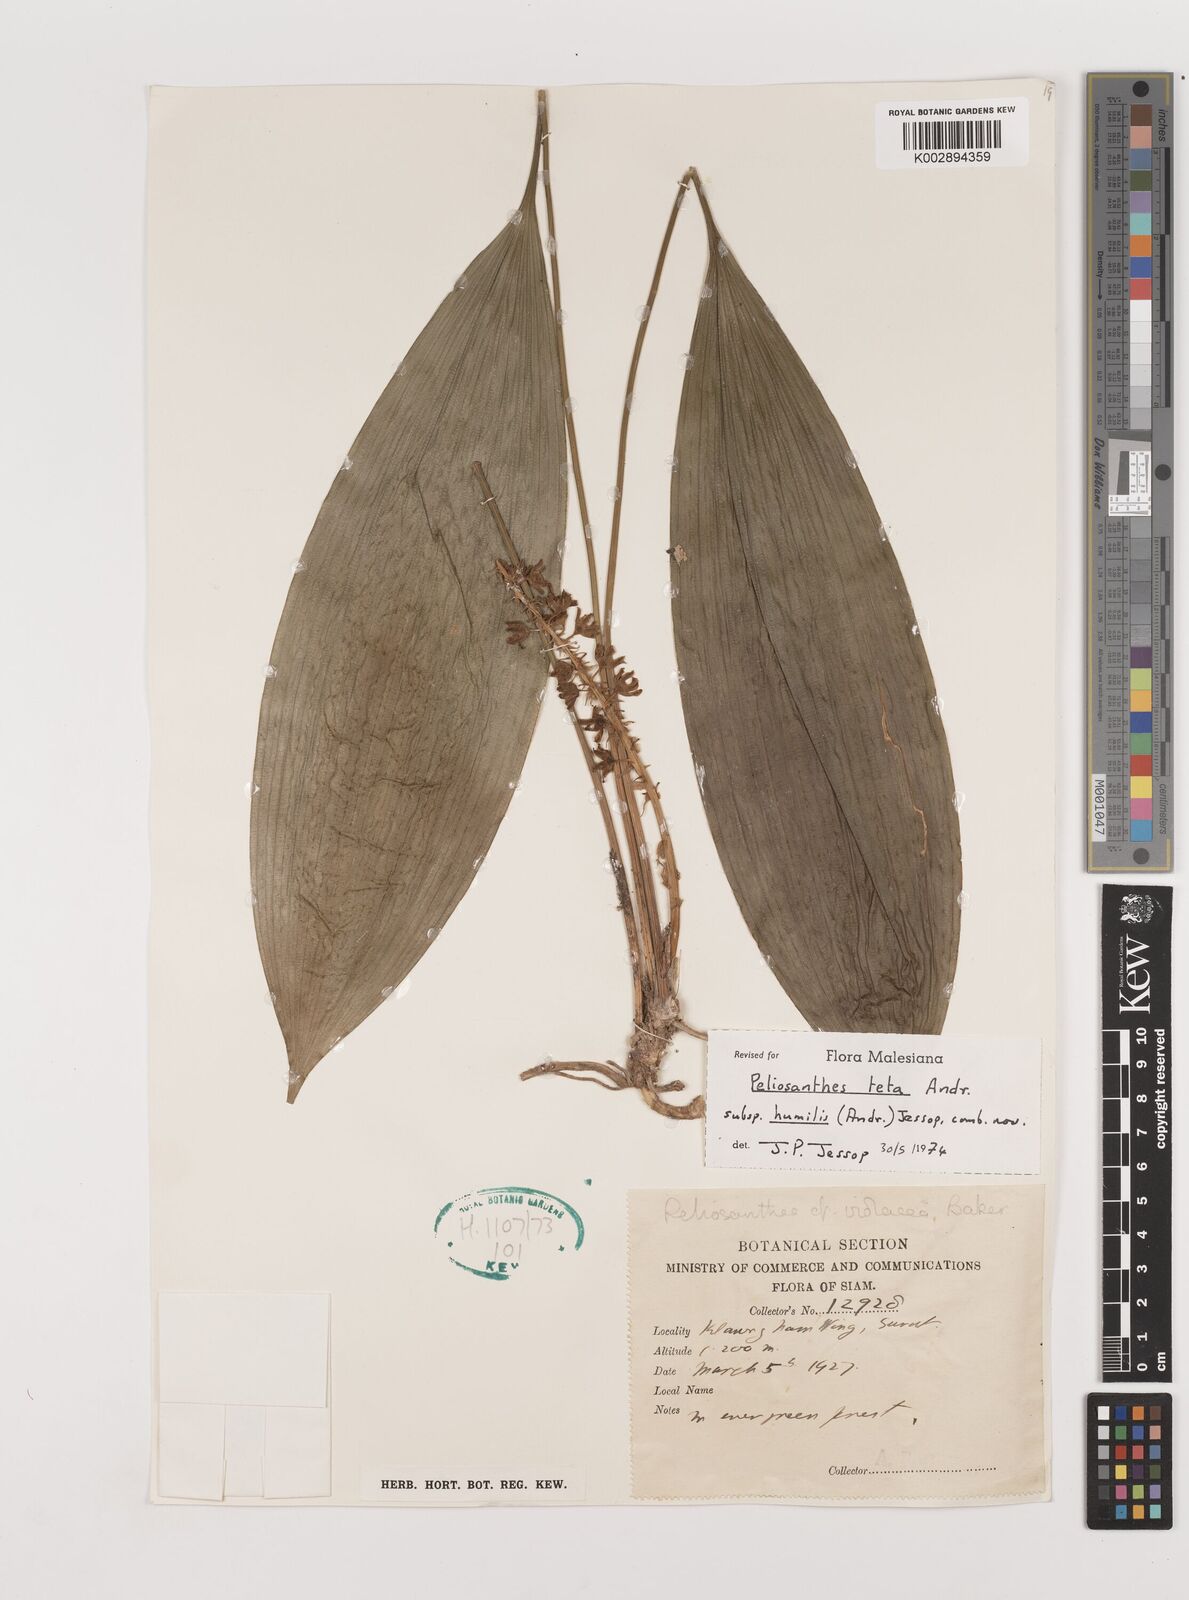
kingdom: Plantae
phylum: Tracheophyta
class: Liliopsida
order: Asparagales
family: Asparagaceae
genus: Peliosanthes
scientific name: Peliosanthes teta
